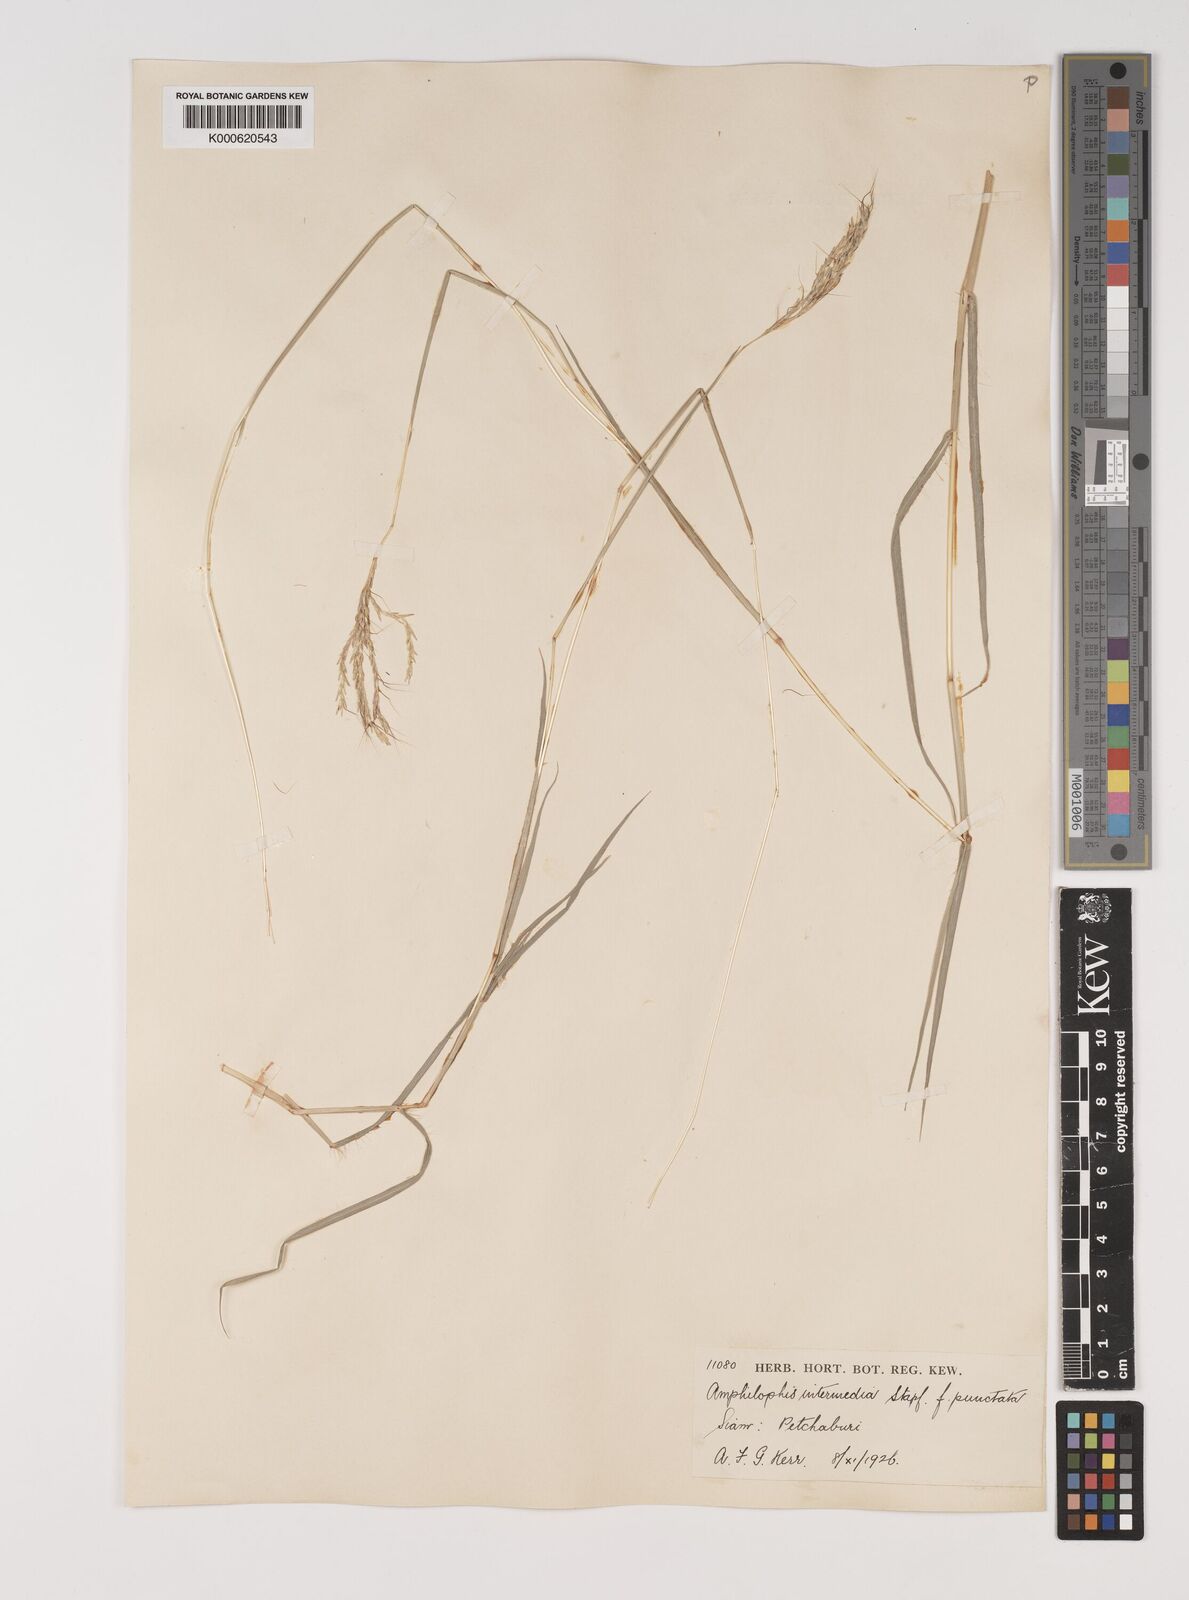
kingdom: Plantae
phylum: Tracheophyta
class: Liliopsida
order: Poales
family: Poaceae
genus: Bothriochloa
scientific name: Bothriochloa
